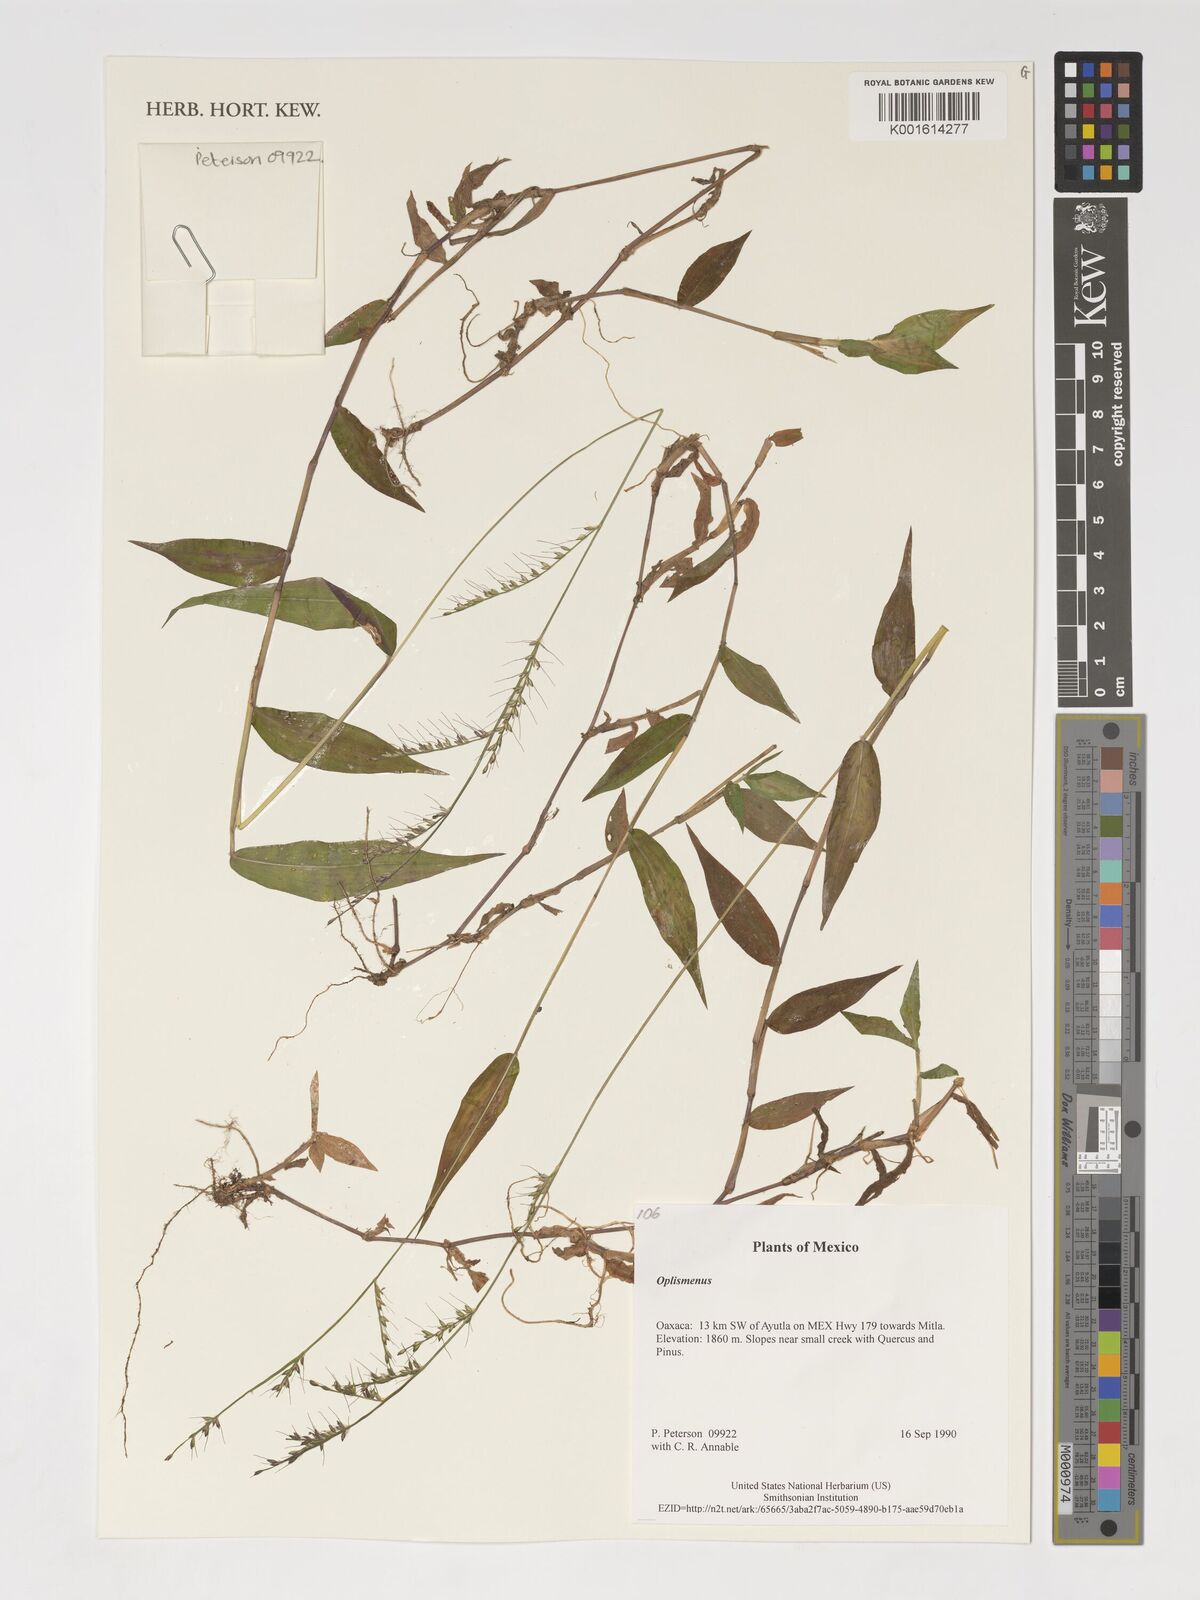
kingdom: Plantae
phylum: Tracheophyta
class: Liliopsida
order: Poales
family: Poaceae
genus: Oplismenus
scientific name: Oplismenus
